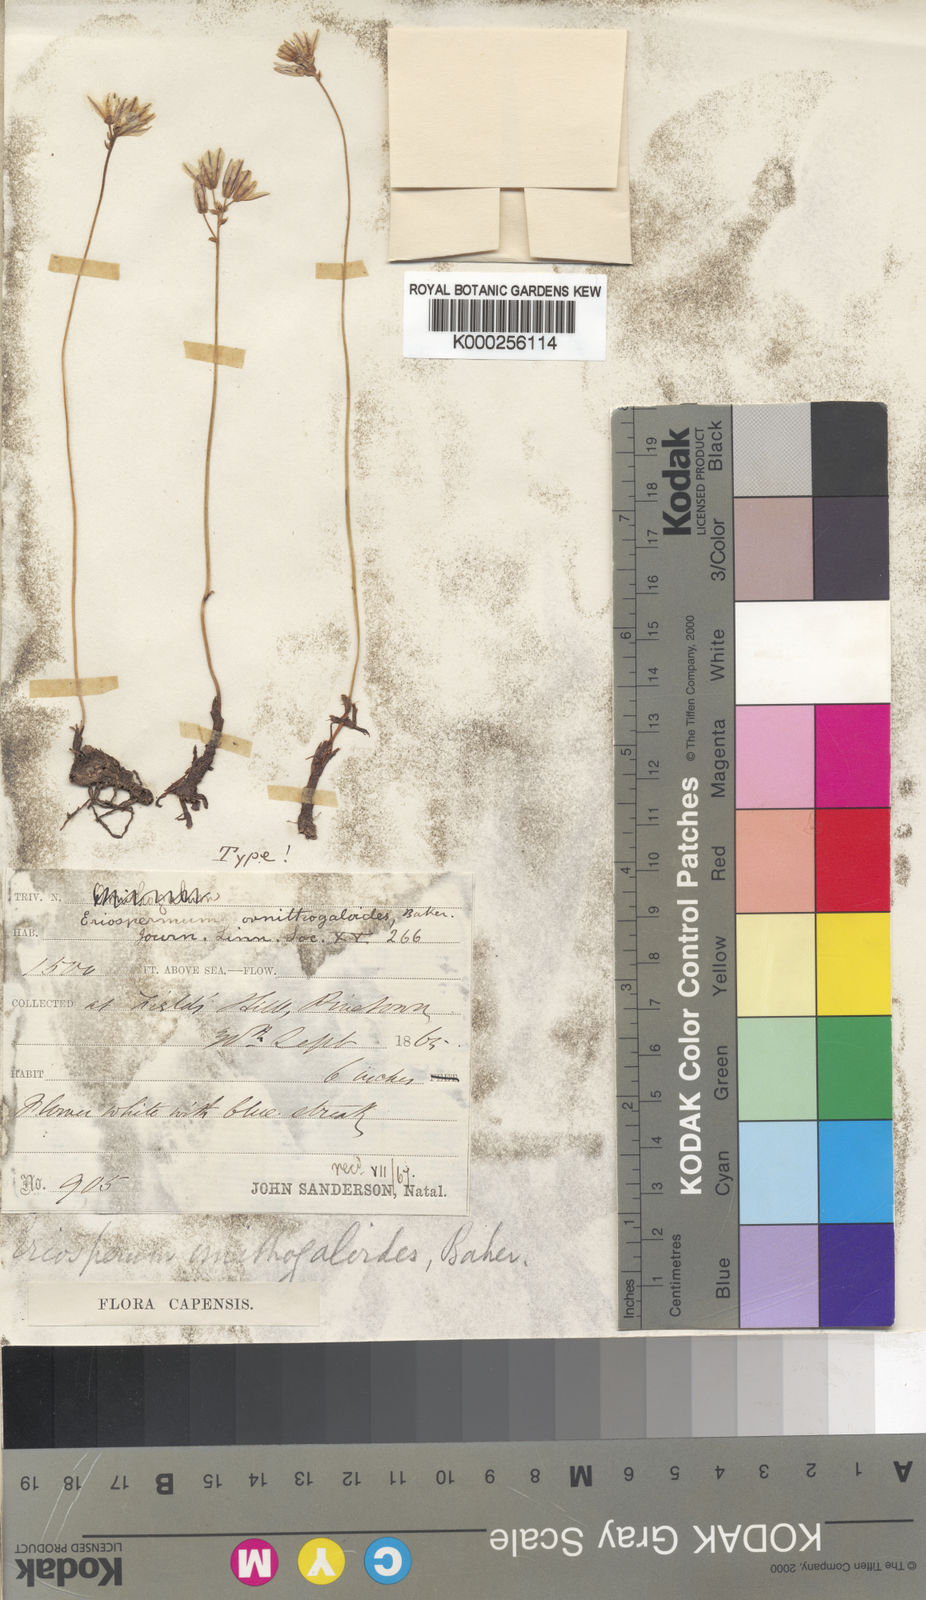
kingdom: Plantae
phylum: Tracheophyta
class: Liliopsida
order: Asparagales
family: Asparagaceae
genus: Eriospermum
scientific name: Eriospermum ornithogaloides
